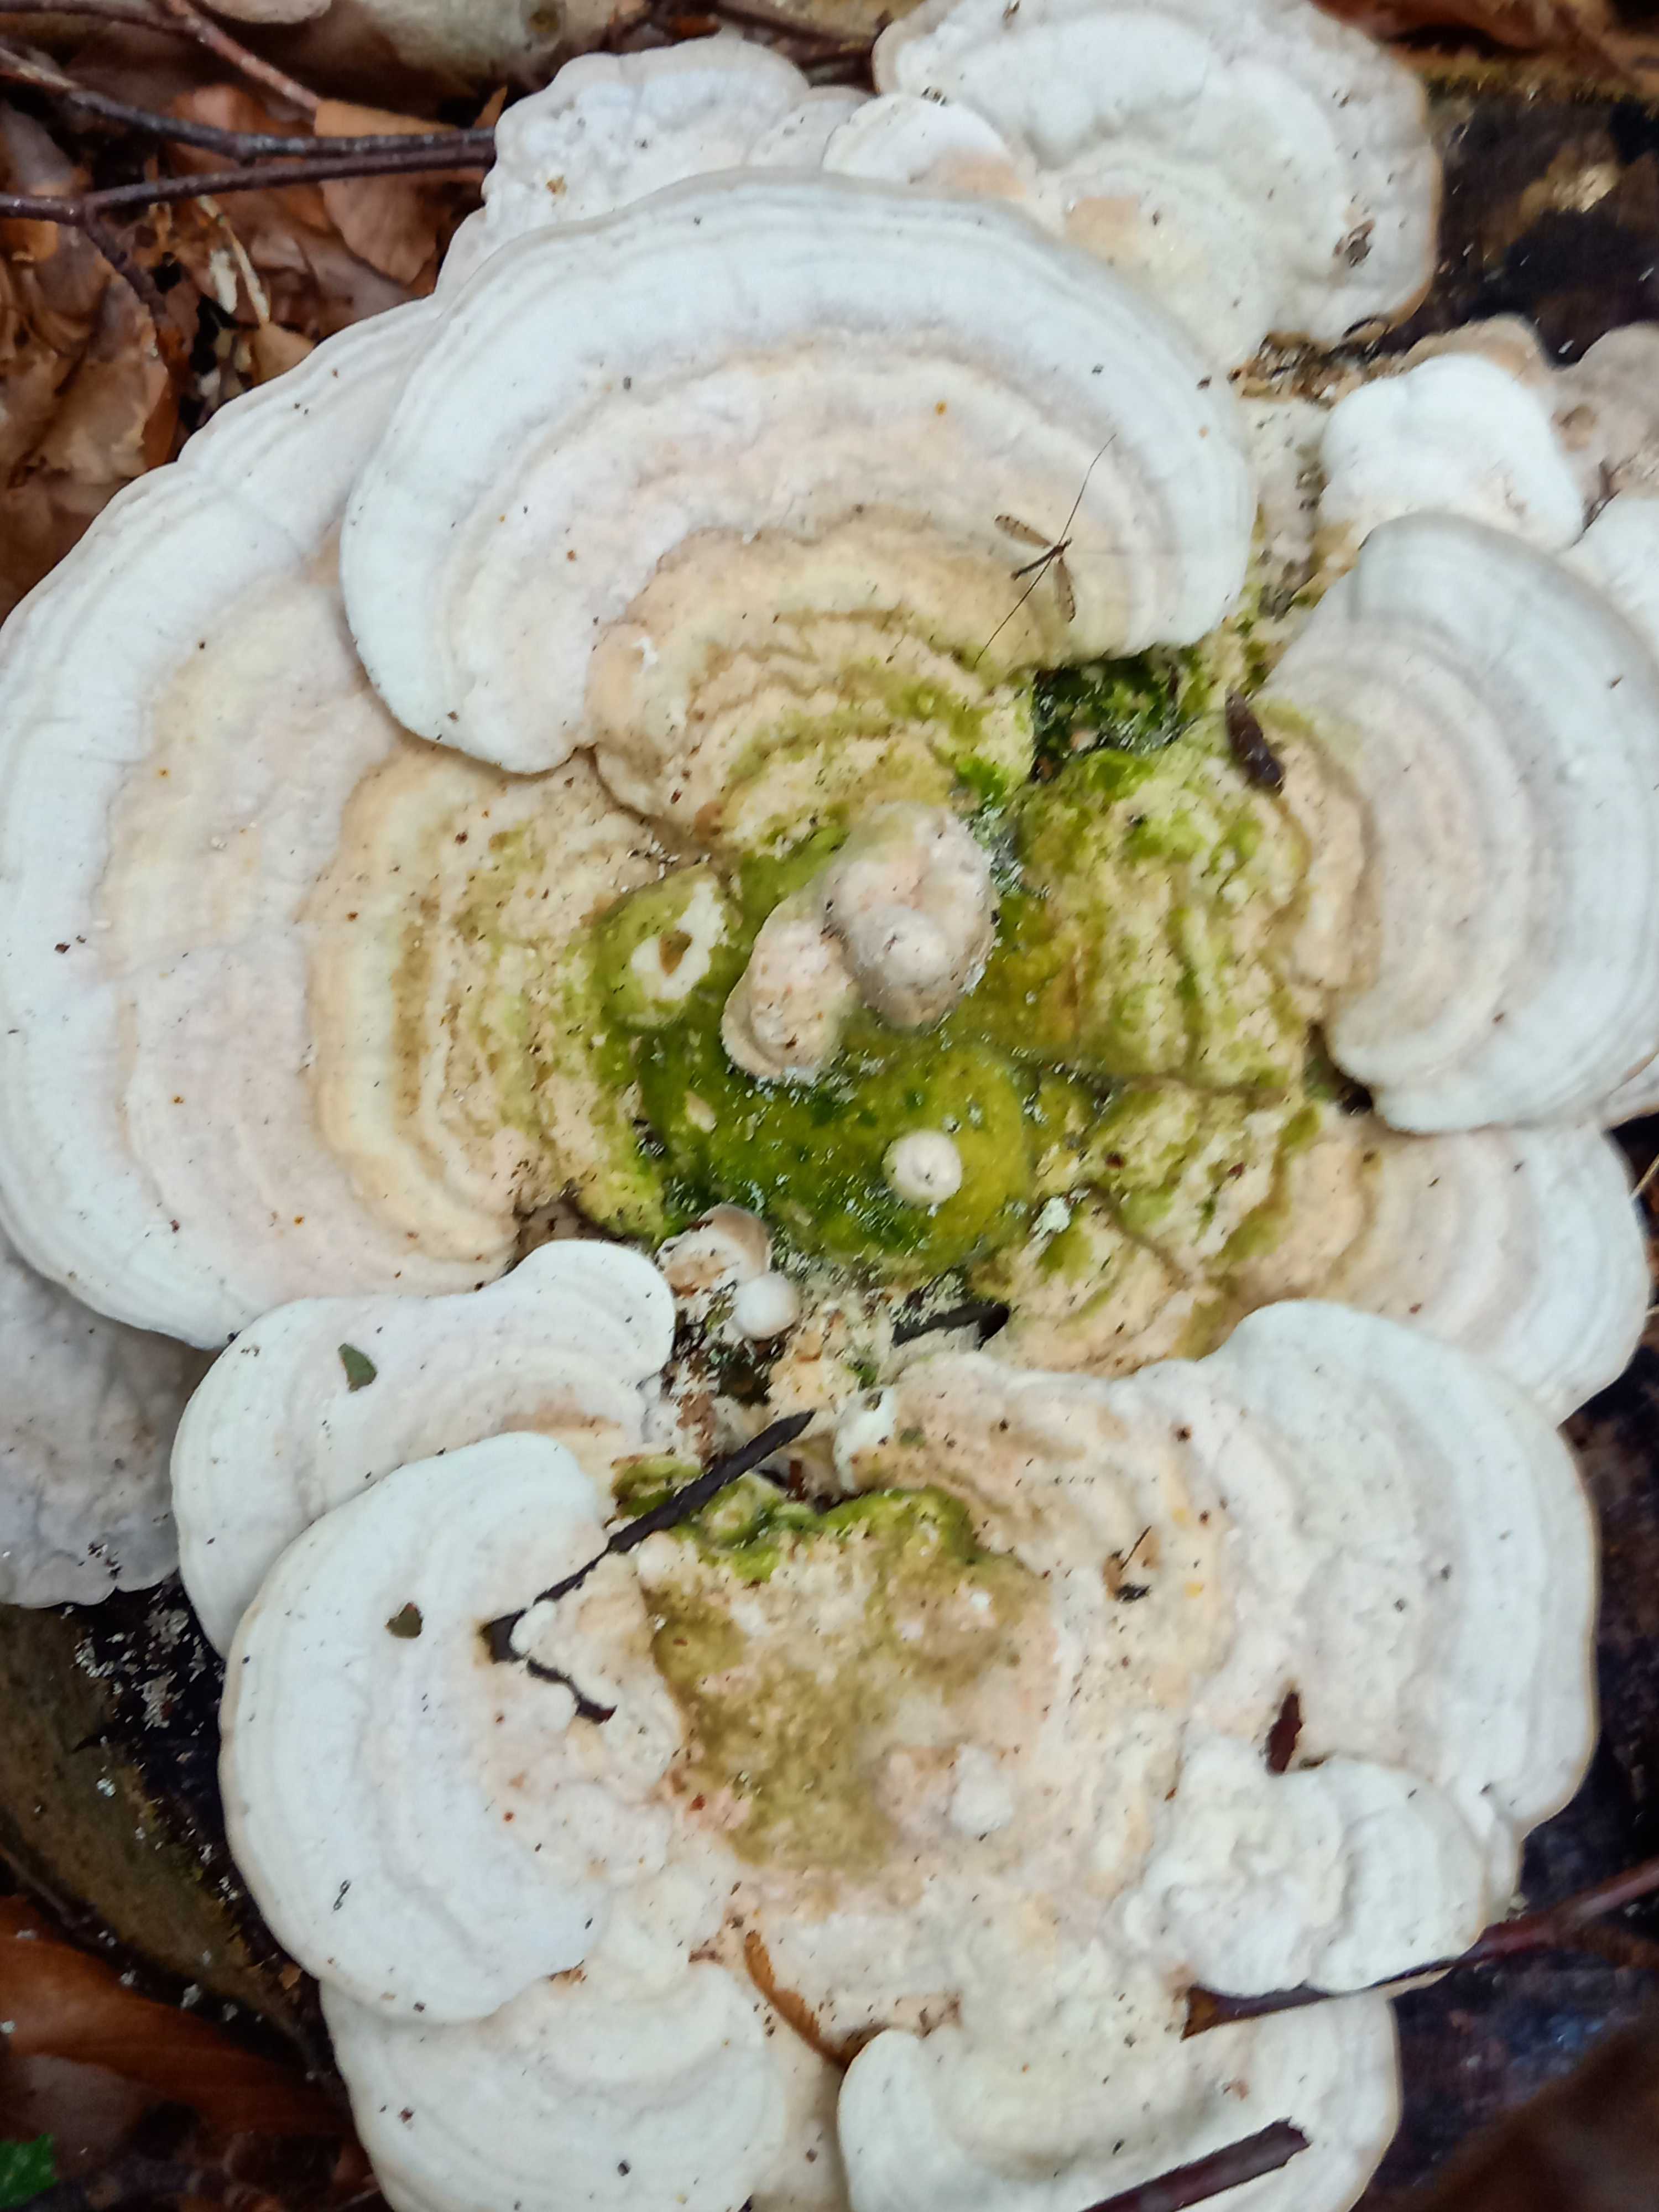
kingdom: Fungi
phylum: Basidiomycota
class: Agaricomycetes
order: Polyporales
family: Polyporaceae
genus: Trametes
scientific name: Trametes gibbosa
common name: puklet læderporesvamp
